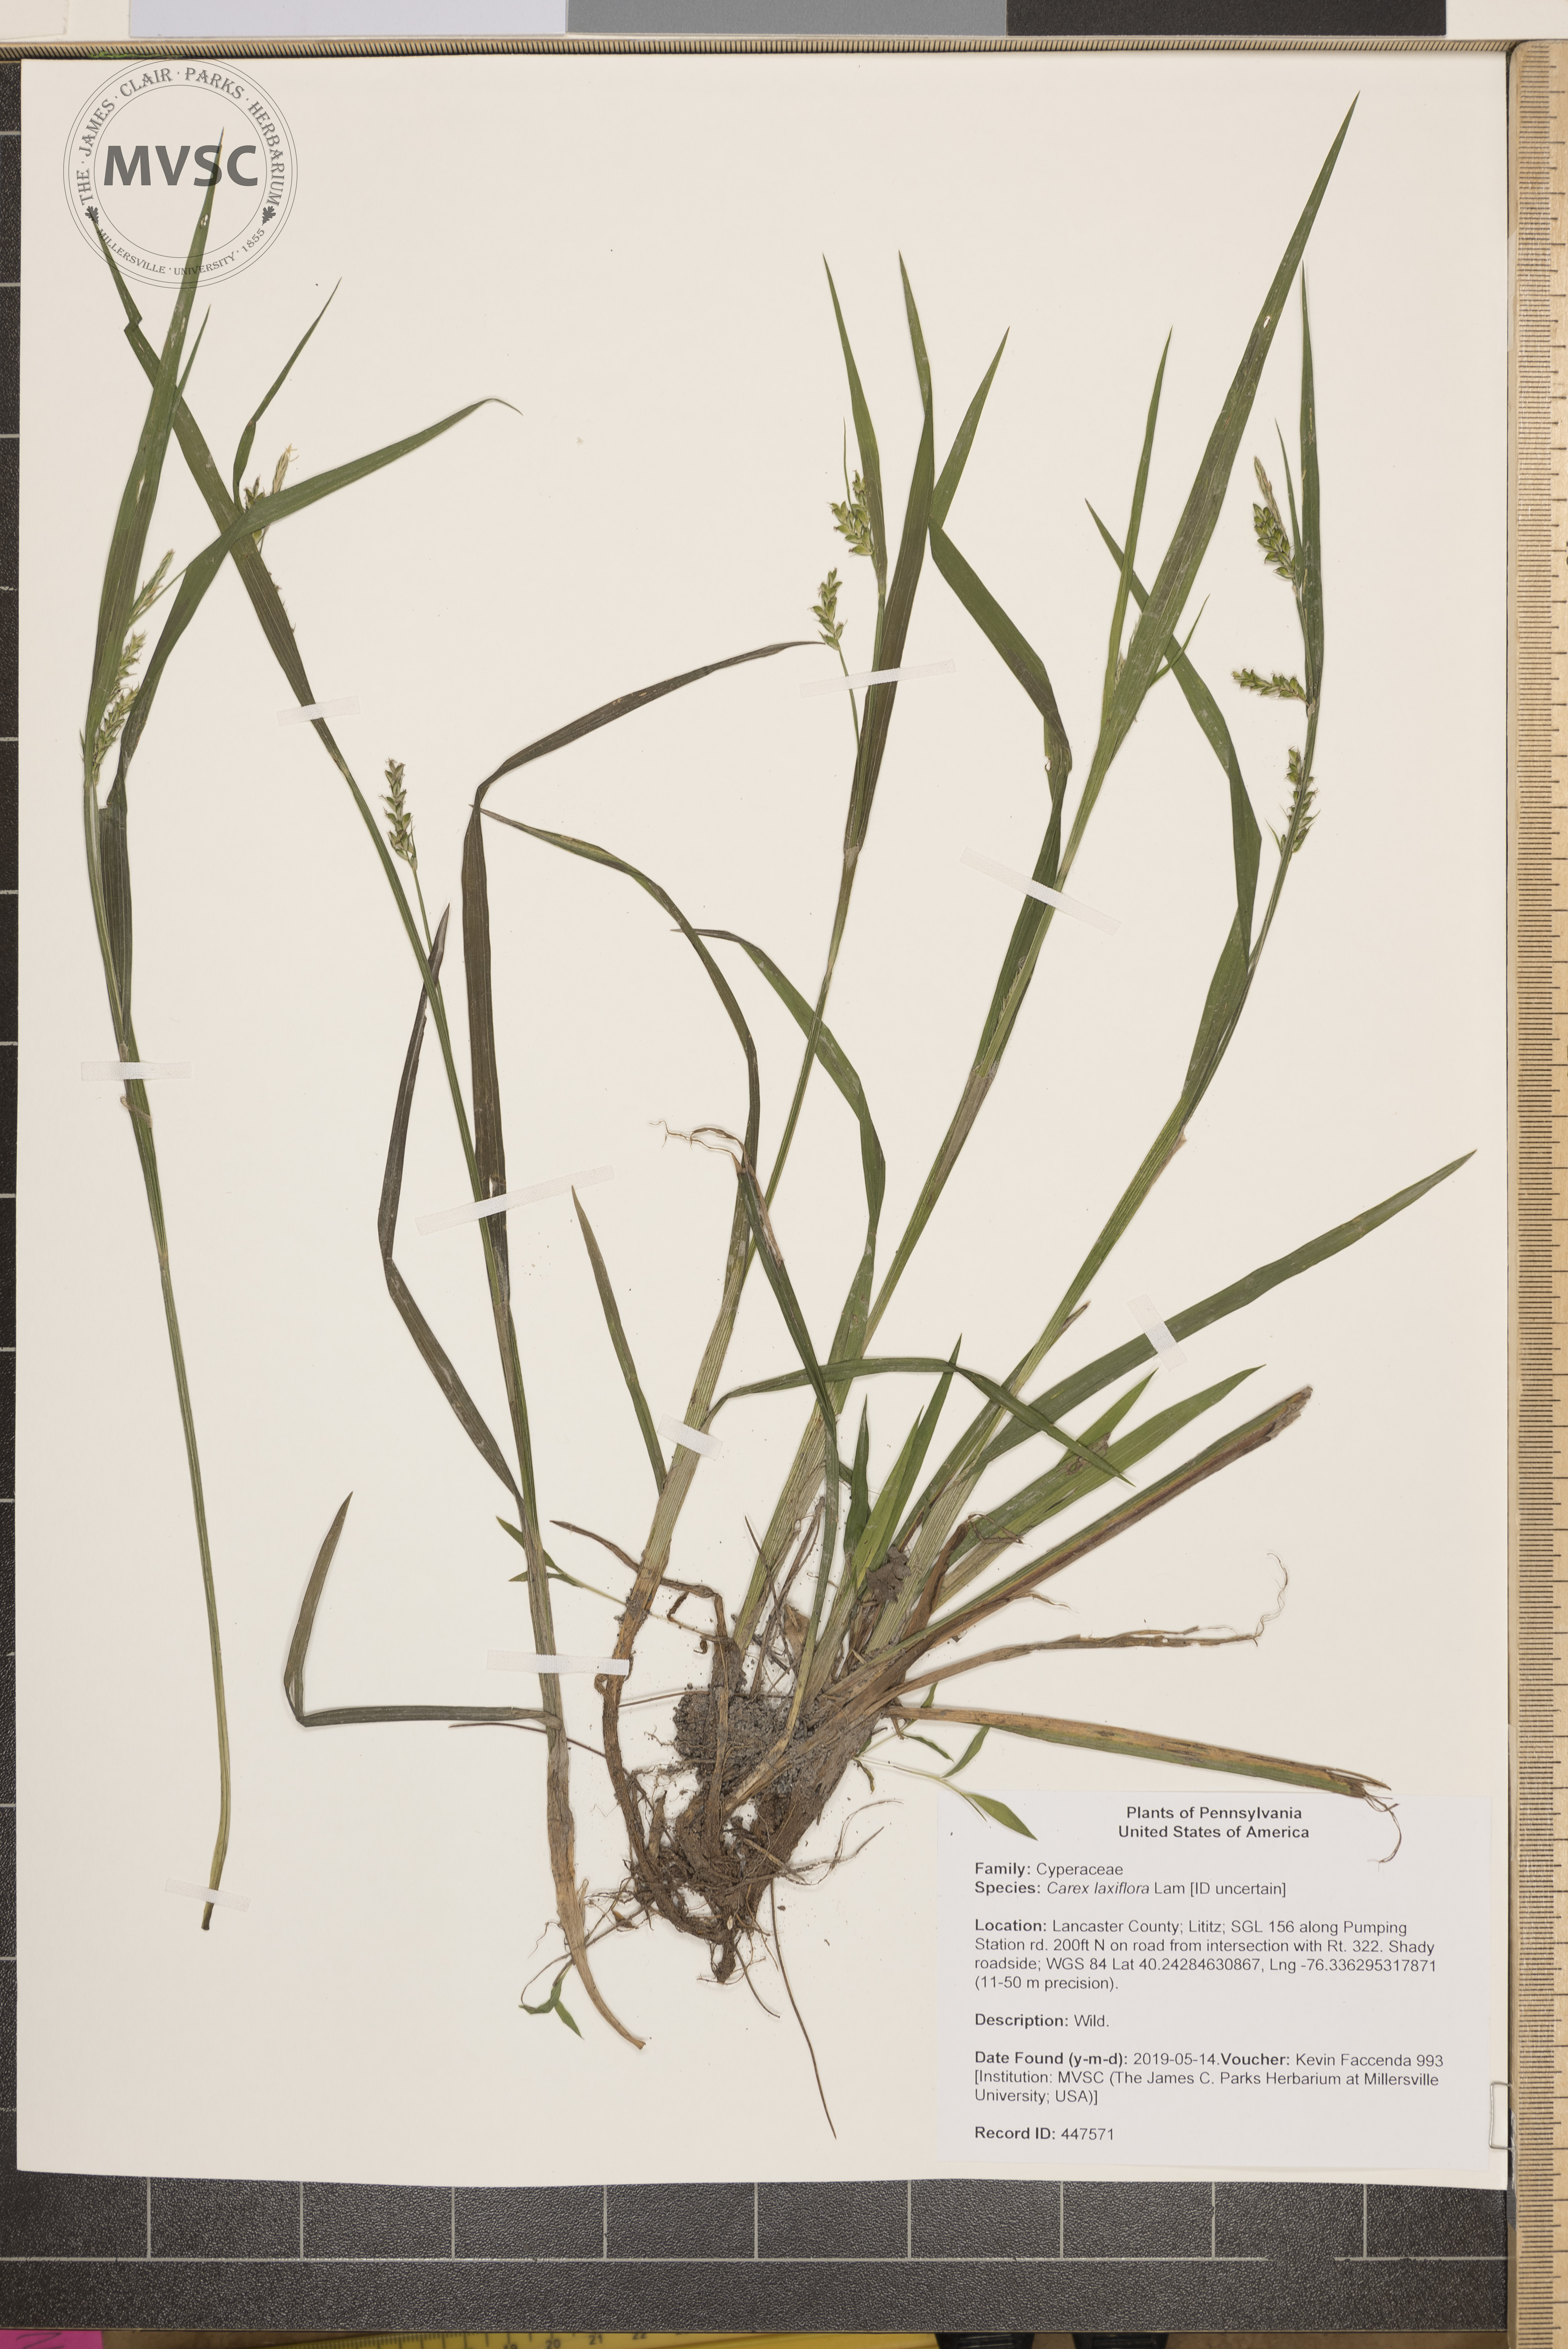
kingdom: Plantae
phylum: Tracheophyta
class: Liliopsida
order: Poales
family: Cyperaceae
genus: Carex
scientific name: Carex laxiflora
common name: Beech wood sedge
